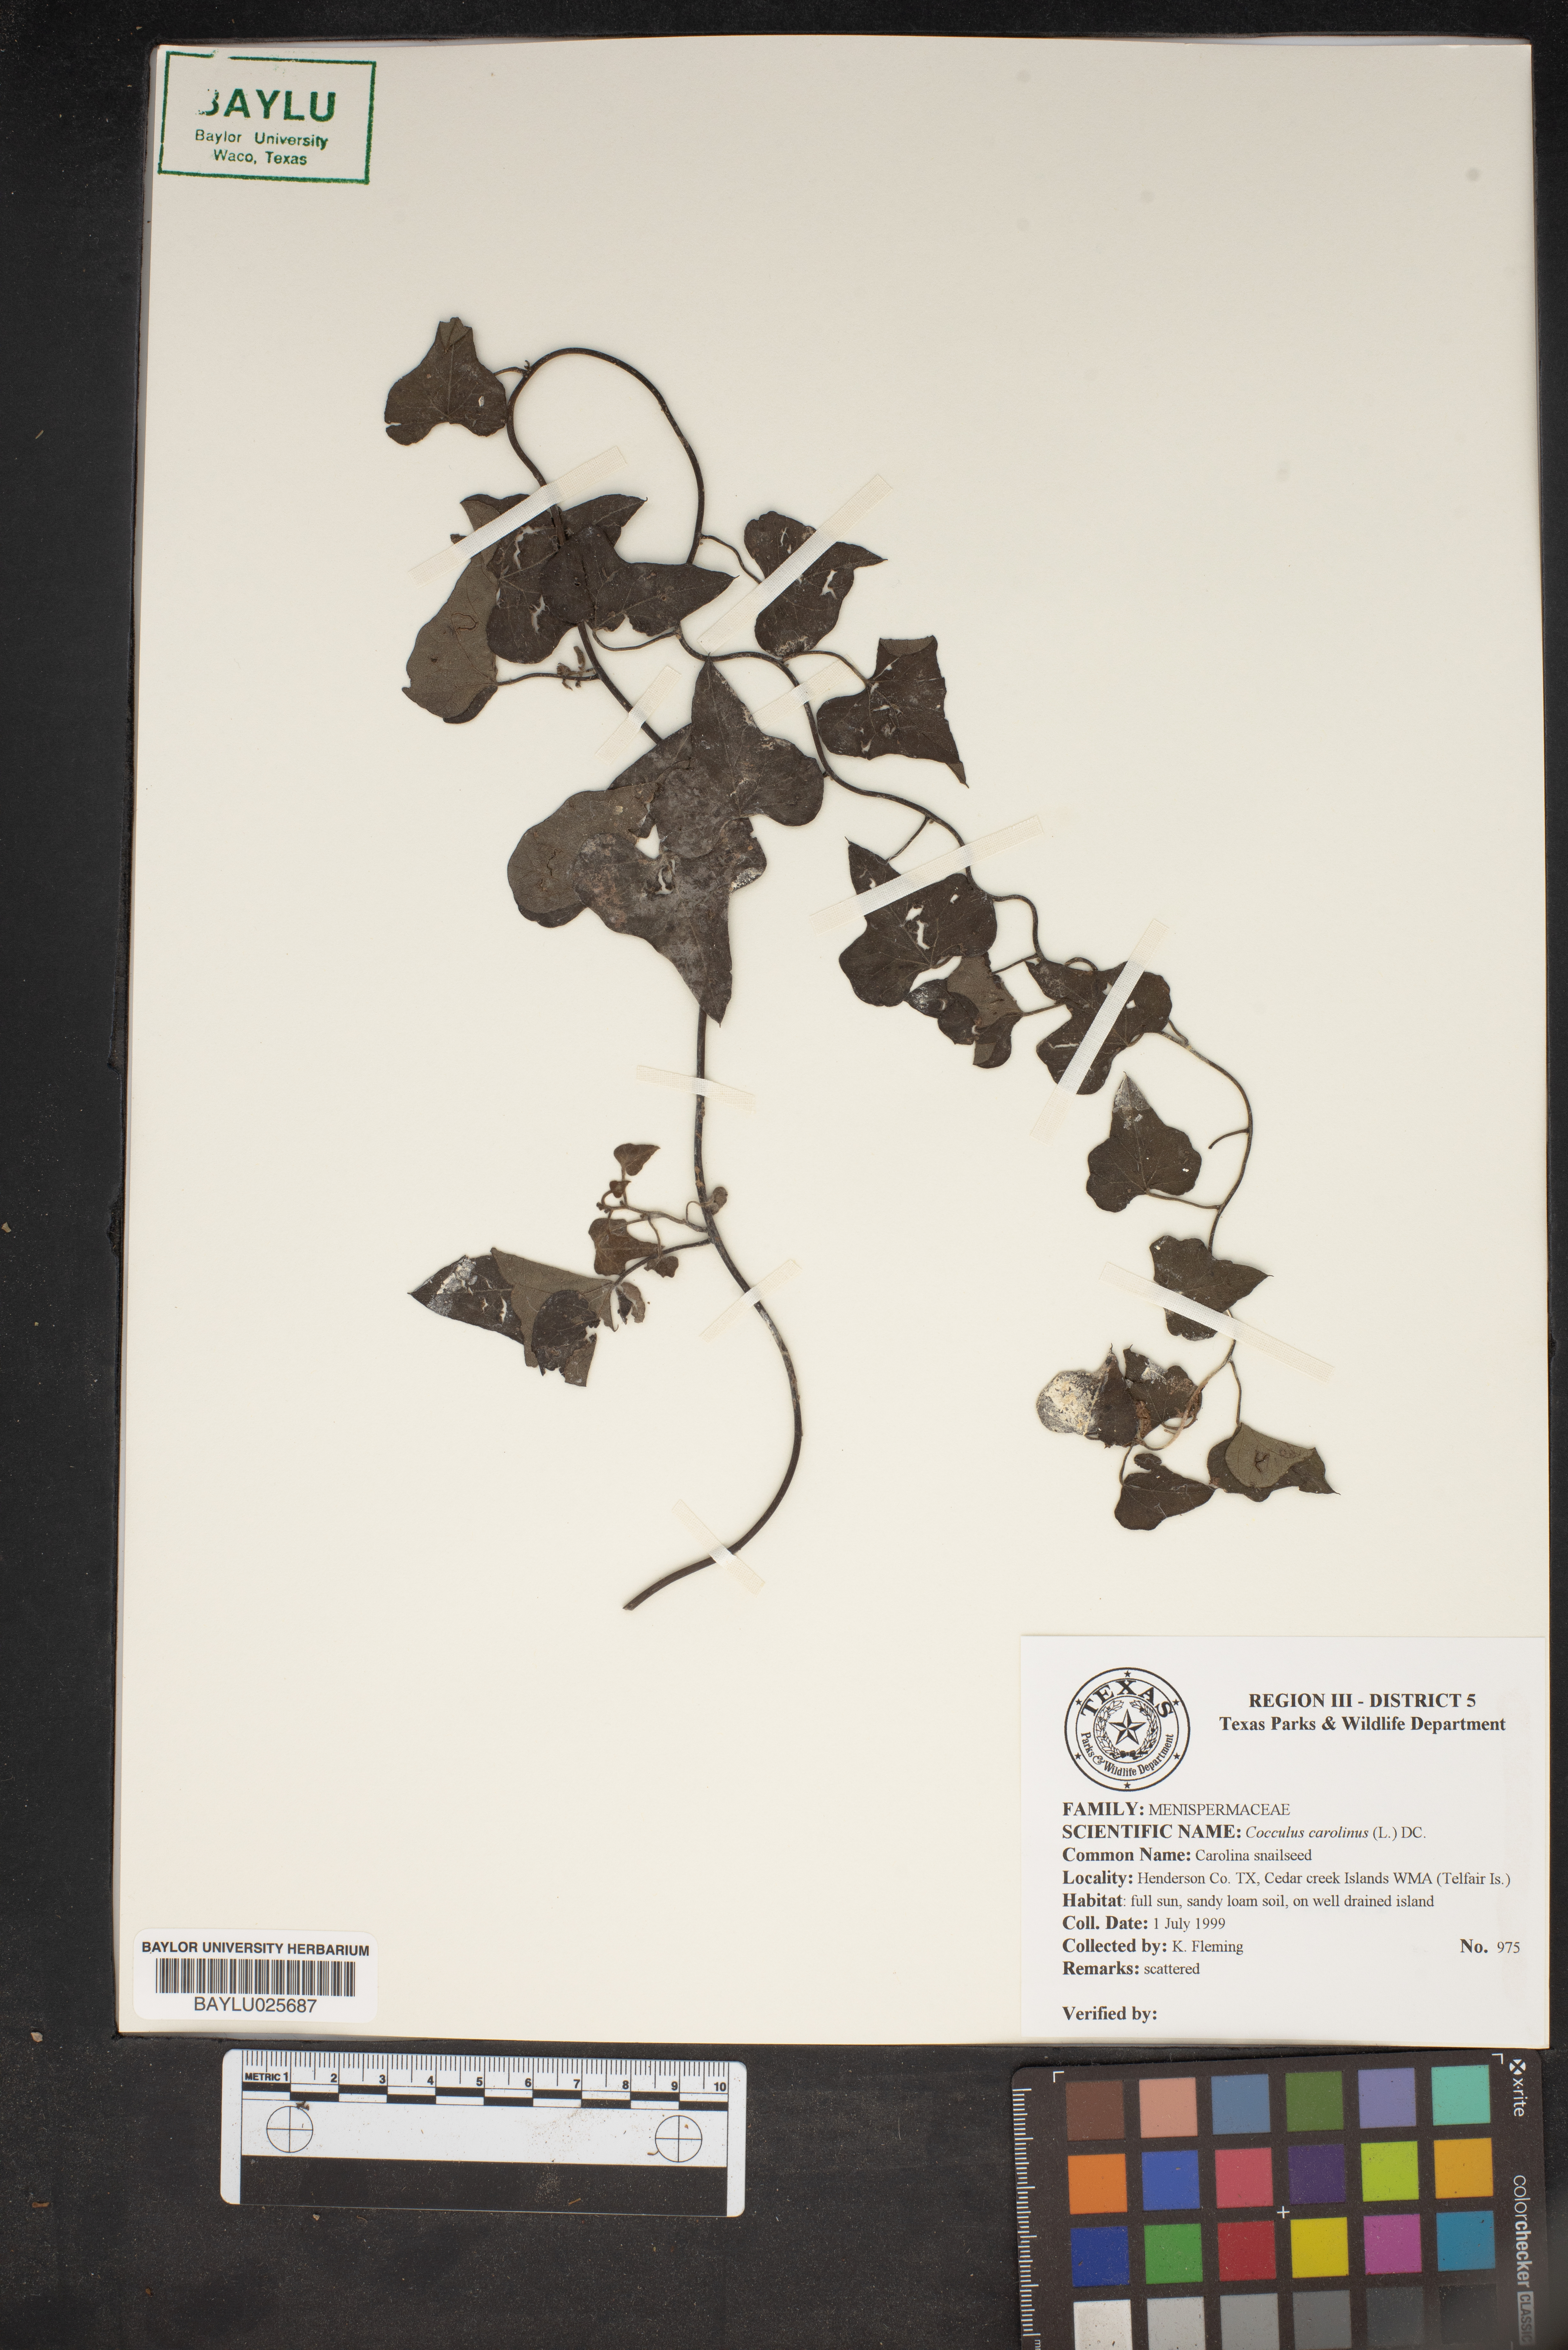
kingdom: Plantae
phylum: Tracheophyta
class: Magnoliopsida
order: Ranunculales
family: Menispermaceae
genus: Cocculus
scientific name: Cocculus carolinus
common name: Carolina moonseed
